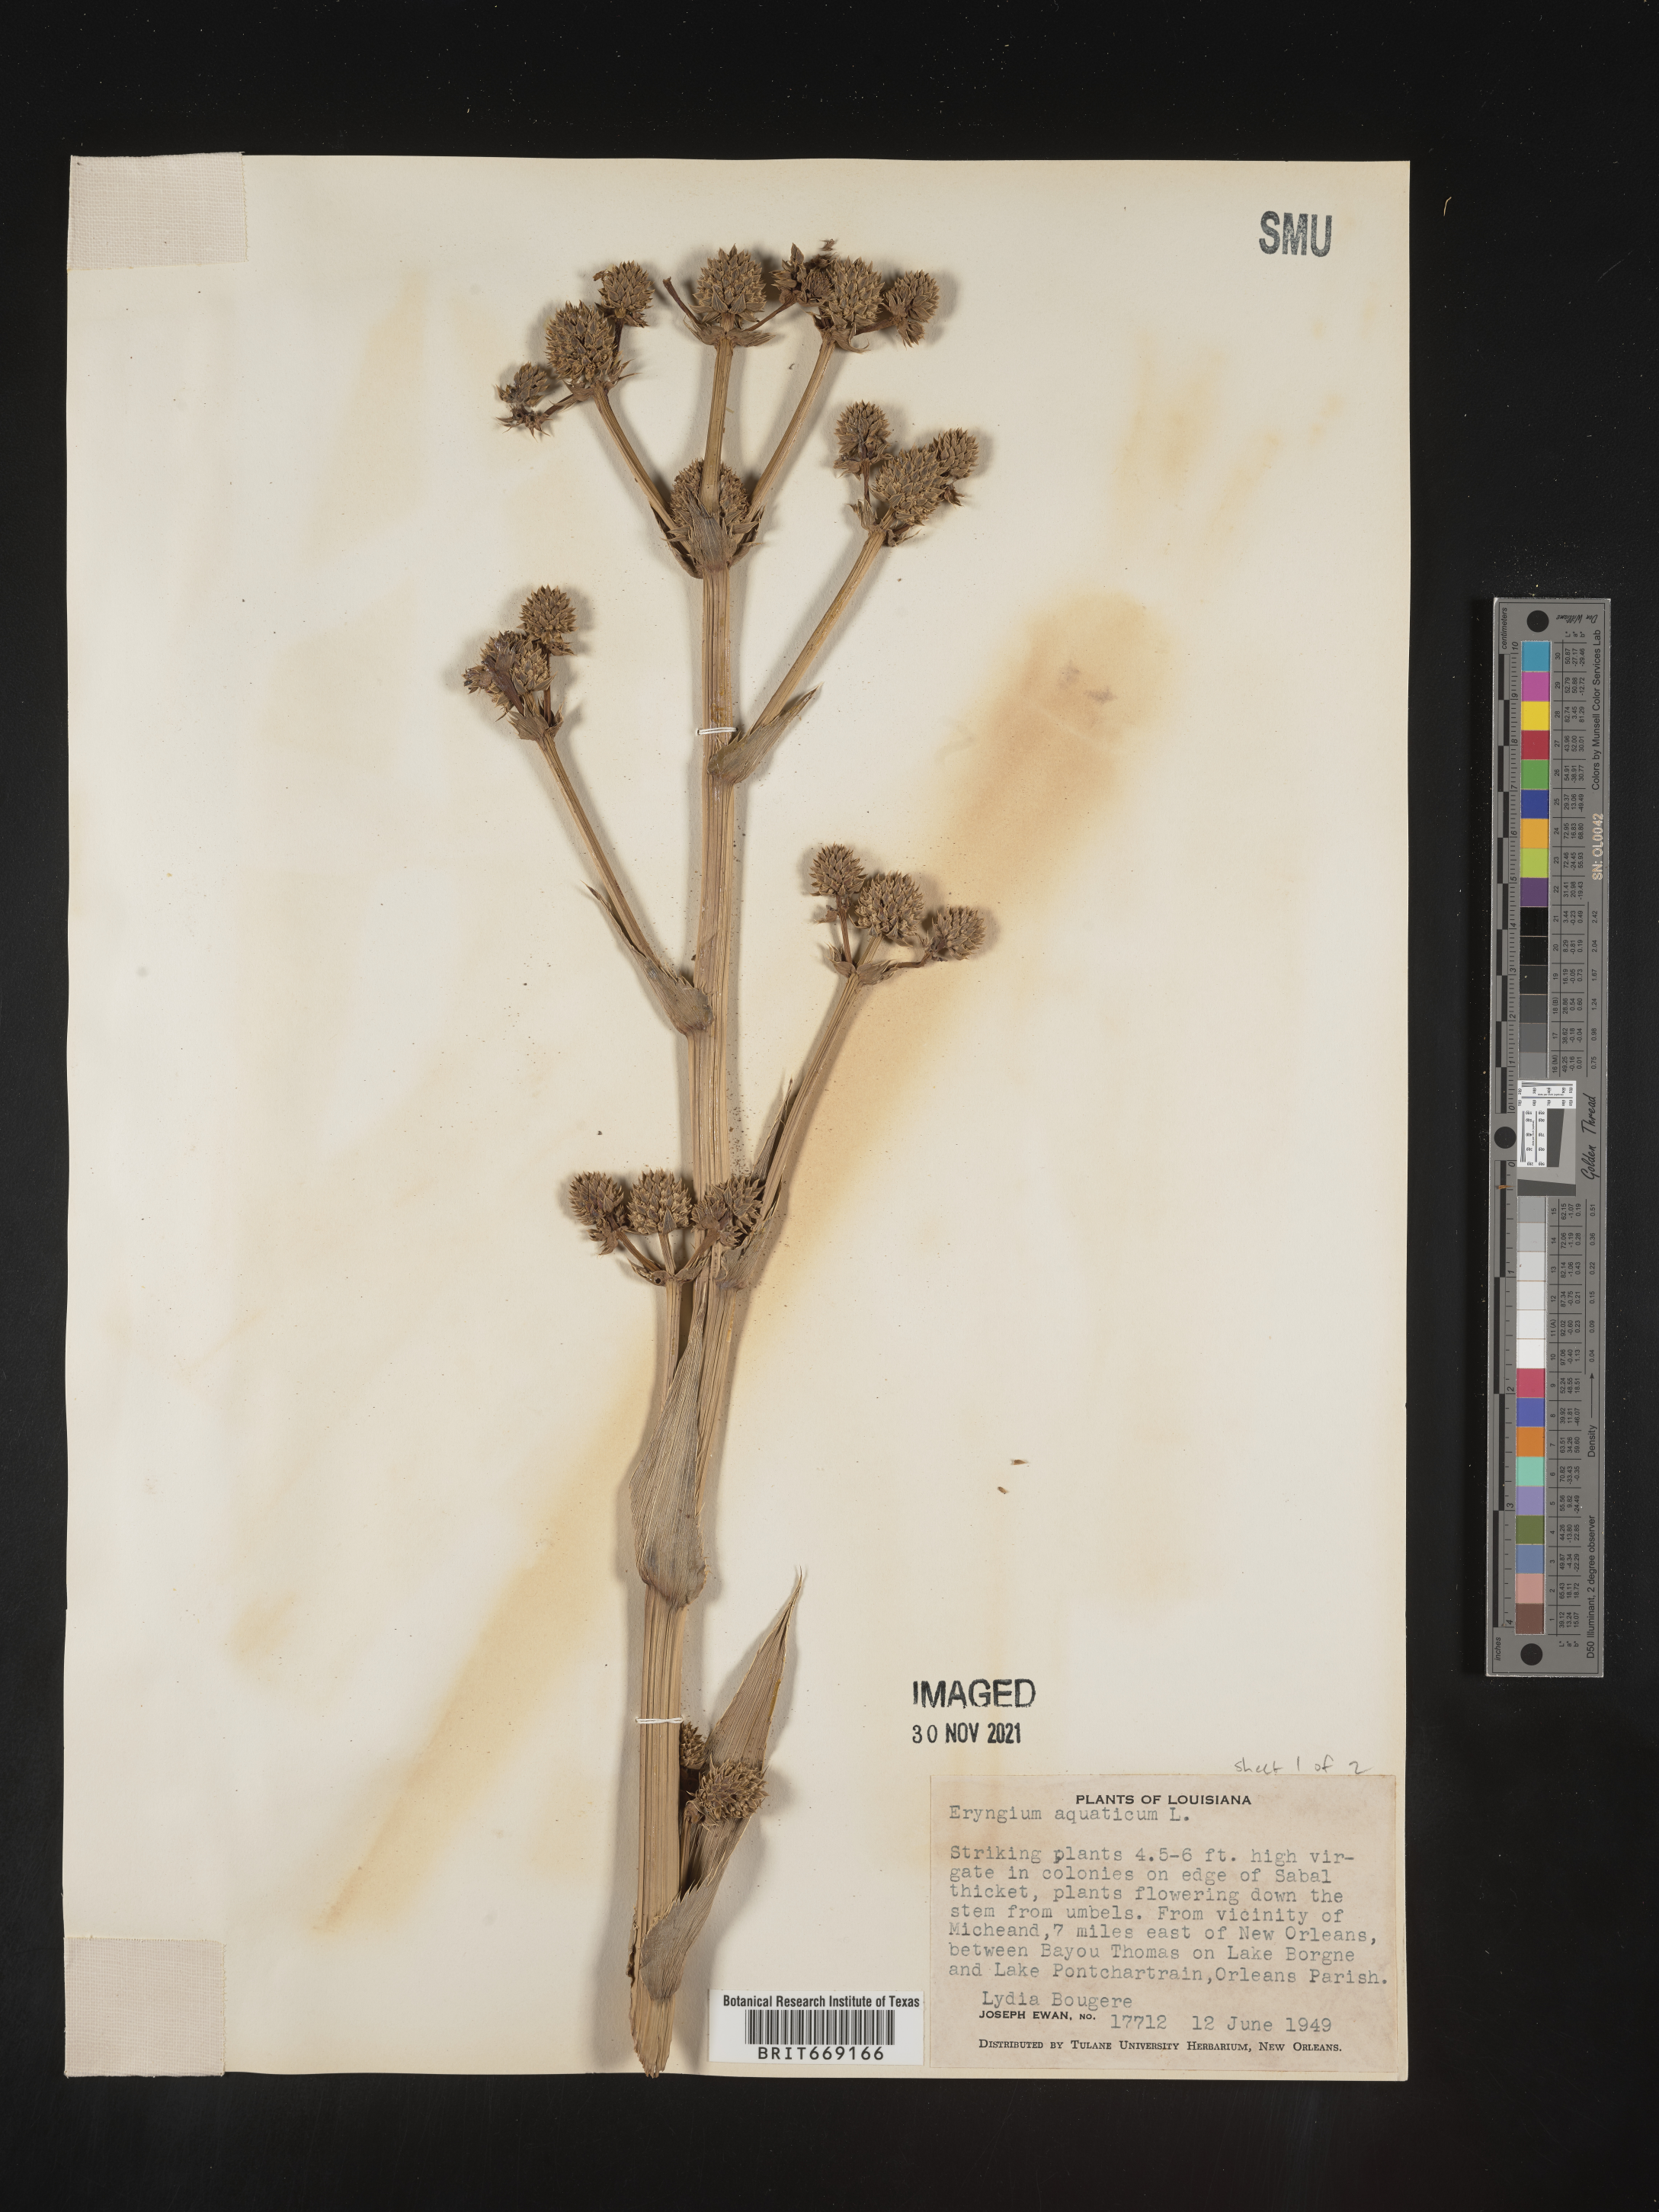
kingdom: Plantae
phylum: Tracheophyta
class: Magnoliopsida
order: Apiales
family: Apiaceae
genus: Eryngium
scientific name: Eryngium aquaticum
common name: Water eryngo
